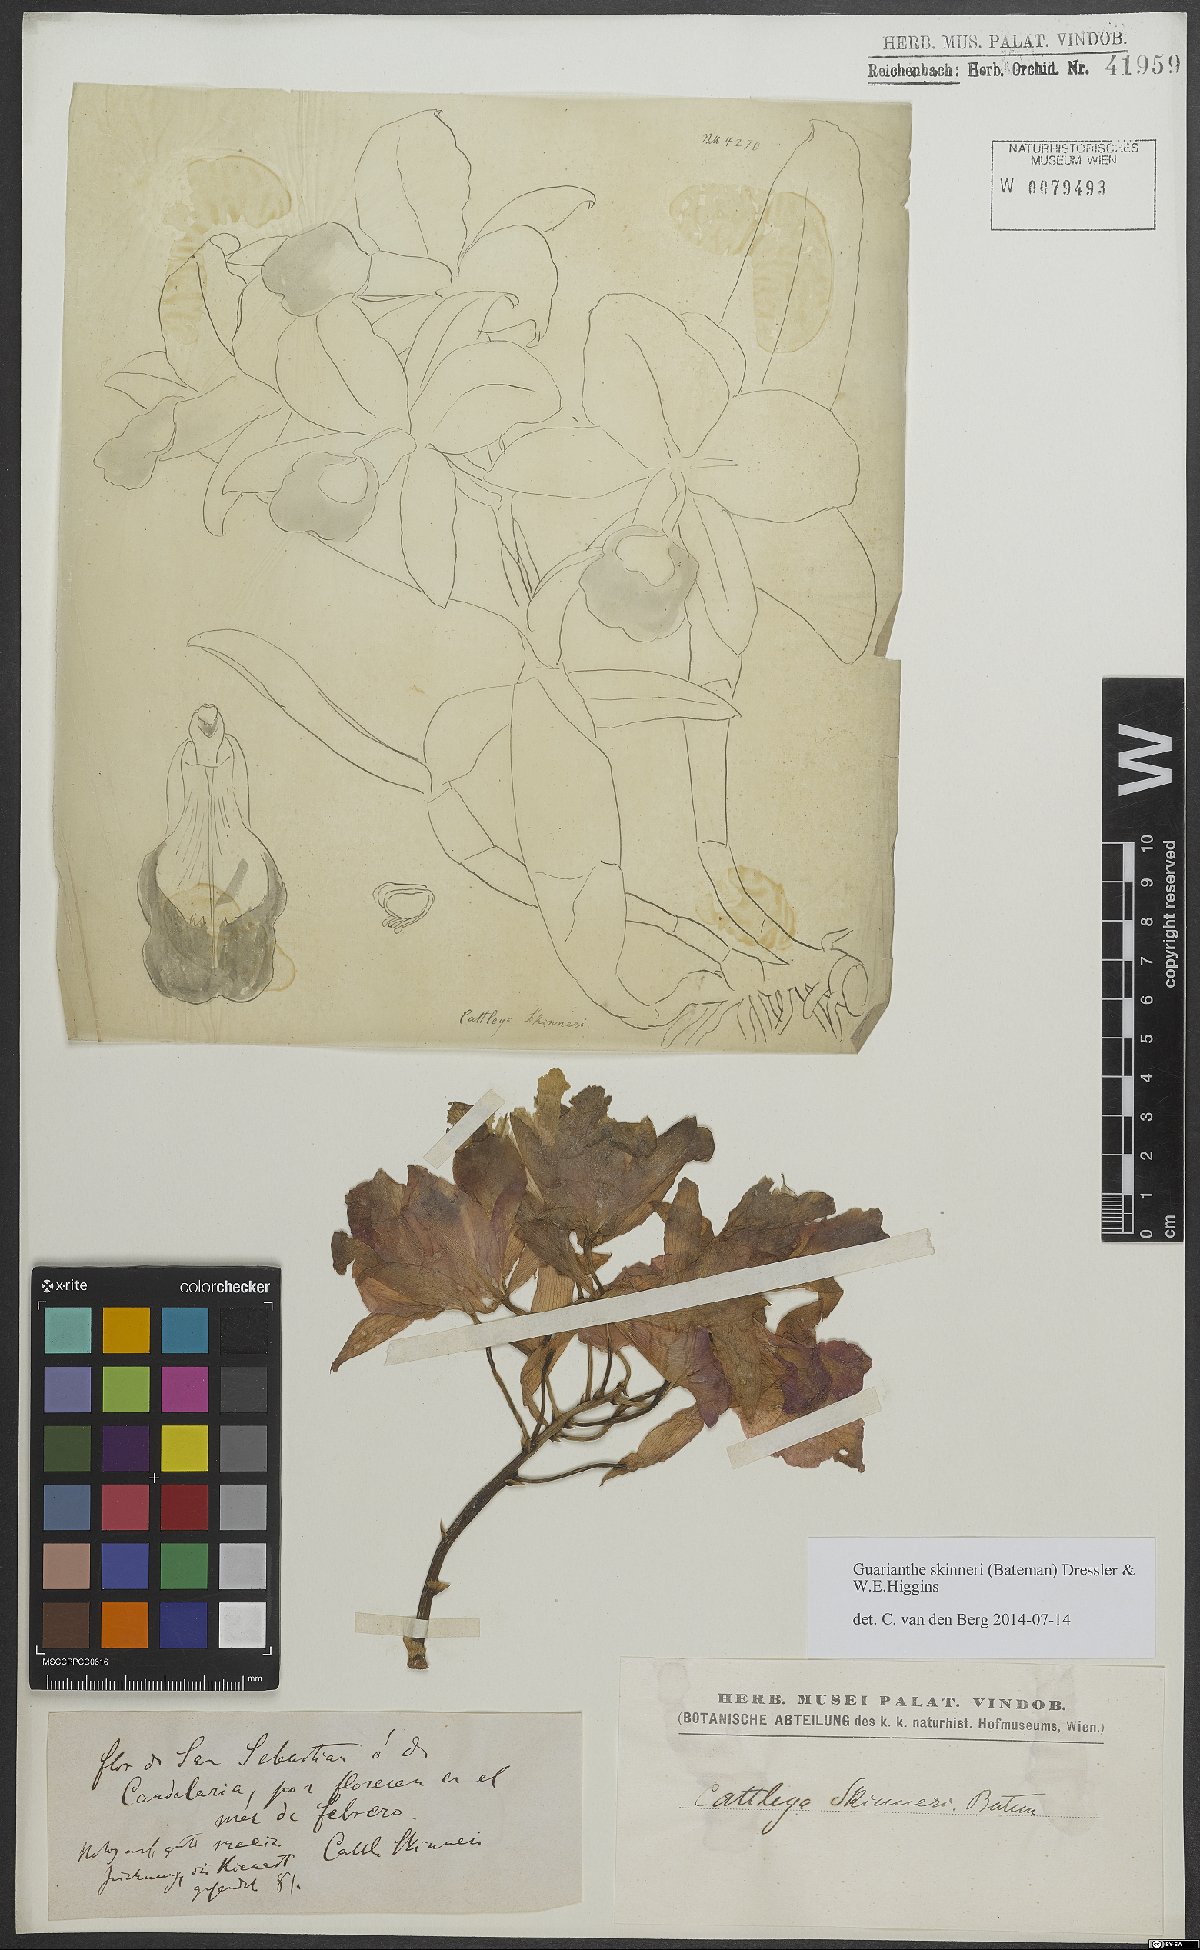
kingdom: Plantae
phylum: Tracheophyta
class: Liliopsida
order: Asparagales
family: Orchidaceae
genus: Guarianthe
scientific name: Guarianthe skinneri
